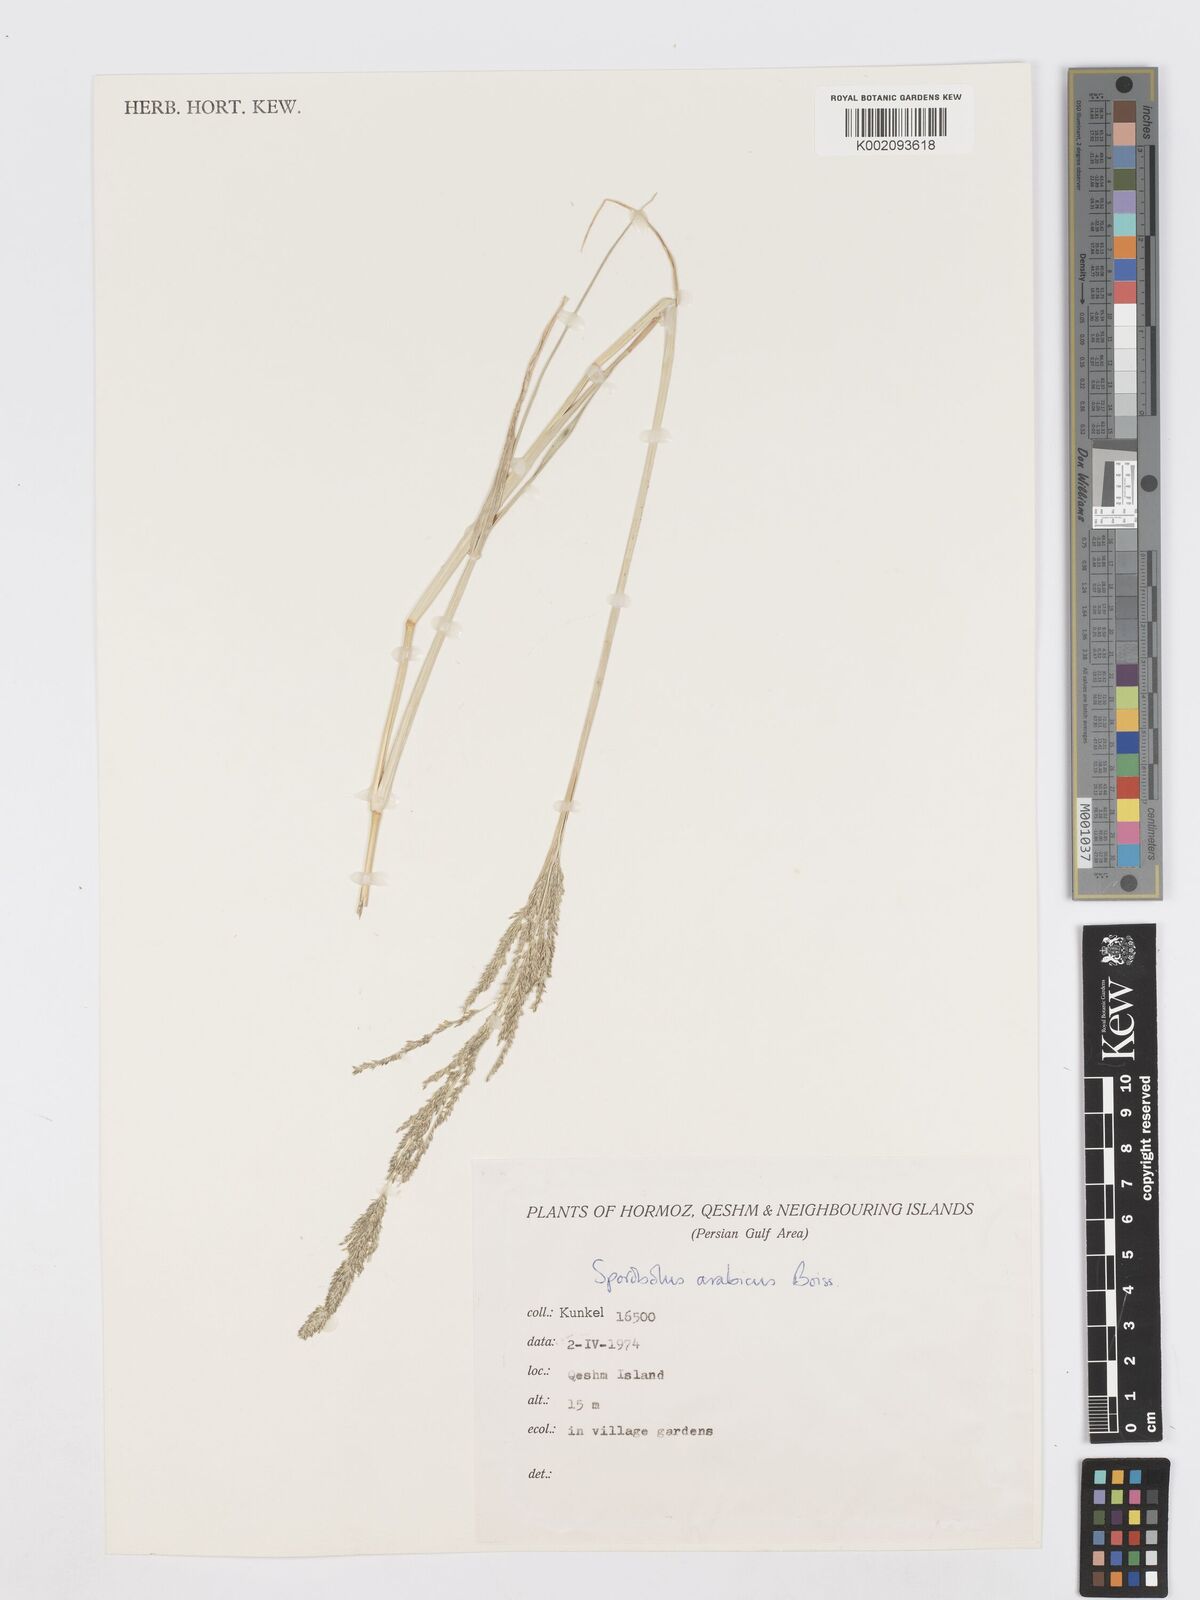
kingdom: Plantae
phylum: Tracheophyta
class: Liliopsida
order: Poales
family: Poaceae
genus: Sporobolus
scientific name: Sporobolus ioclados
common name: Pan dropseed
